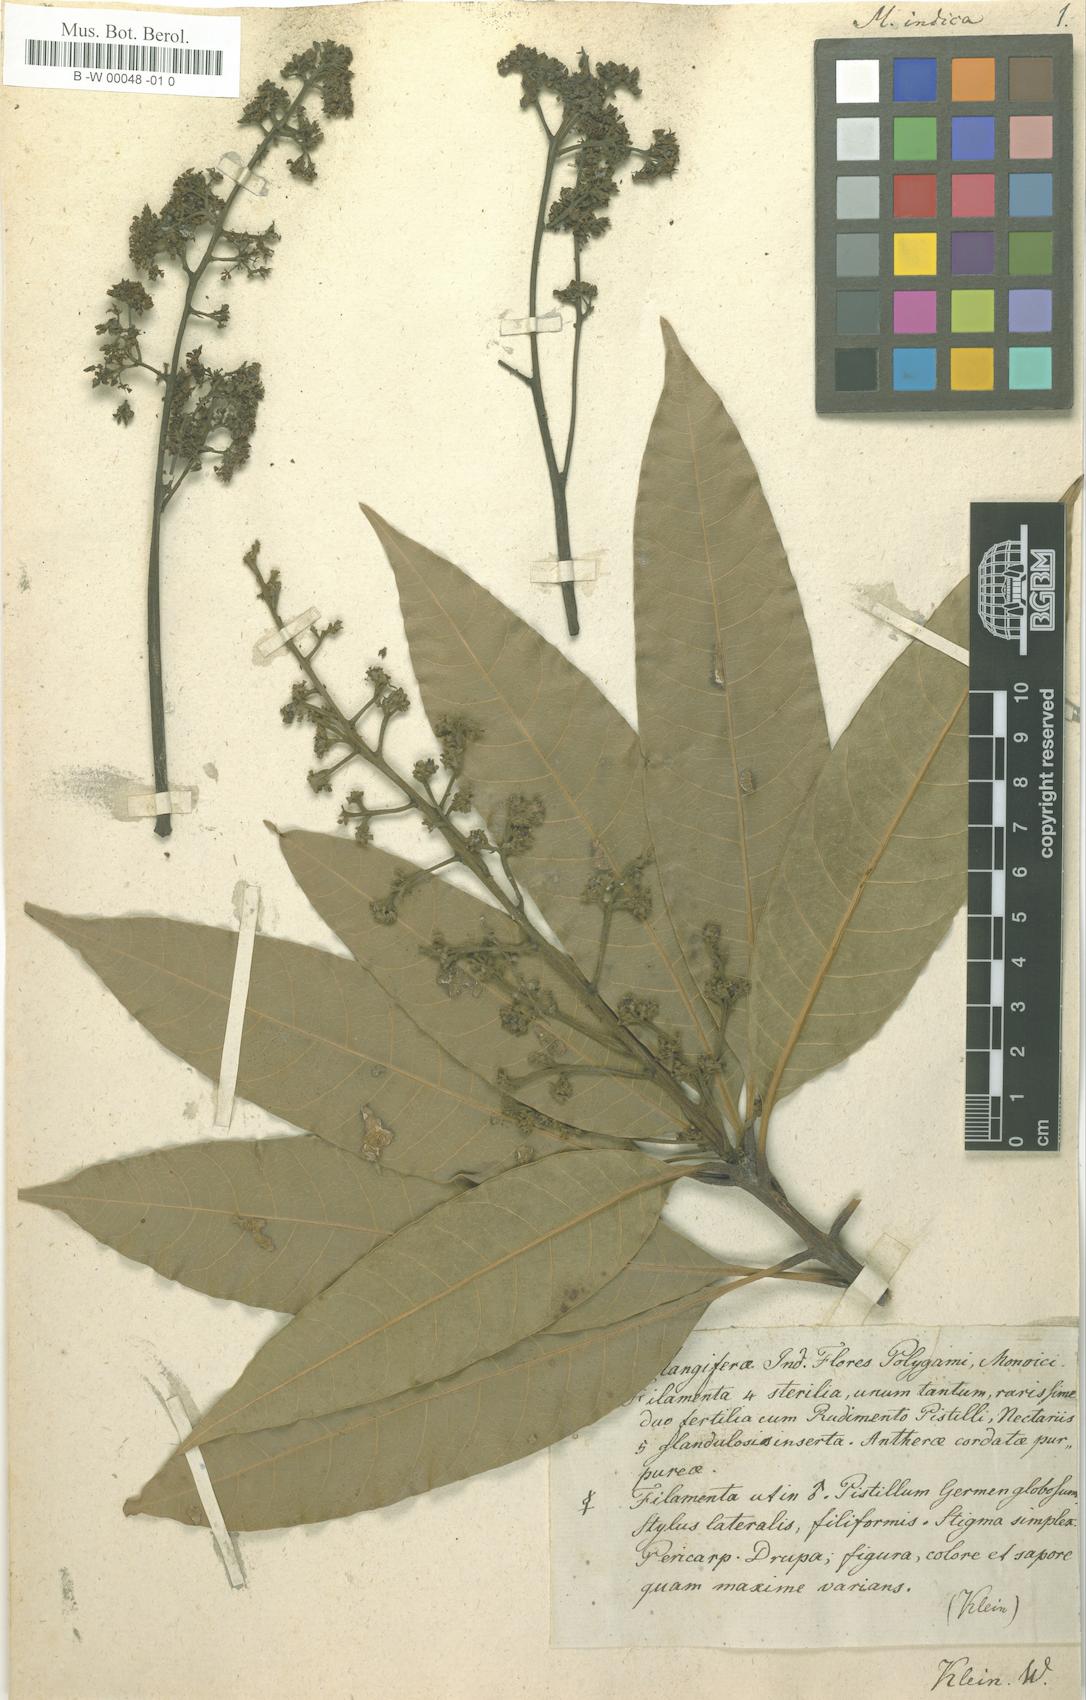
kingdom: Plantae
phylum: Tracheophyta
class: Magnoliopsida
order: Sapindales
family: Anacardiaceae
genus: Mangifera
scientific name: Mangifera indica
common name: Mango
